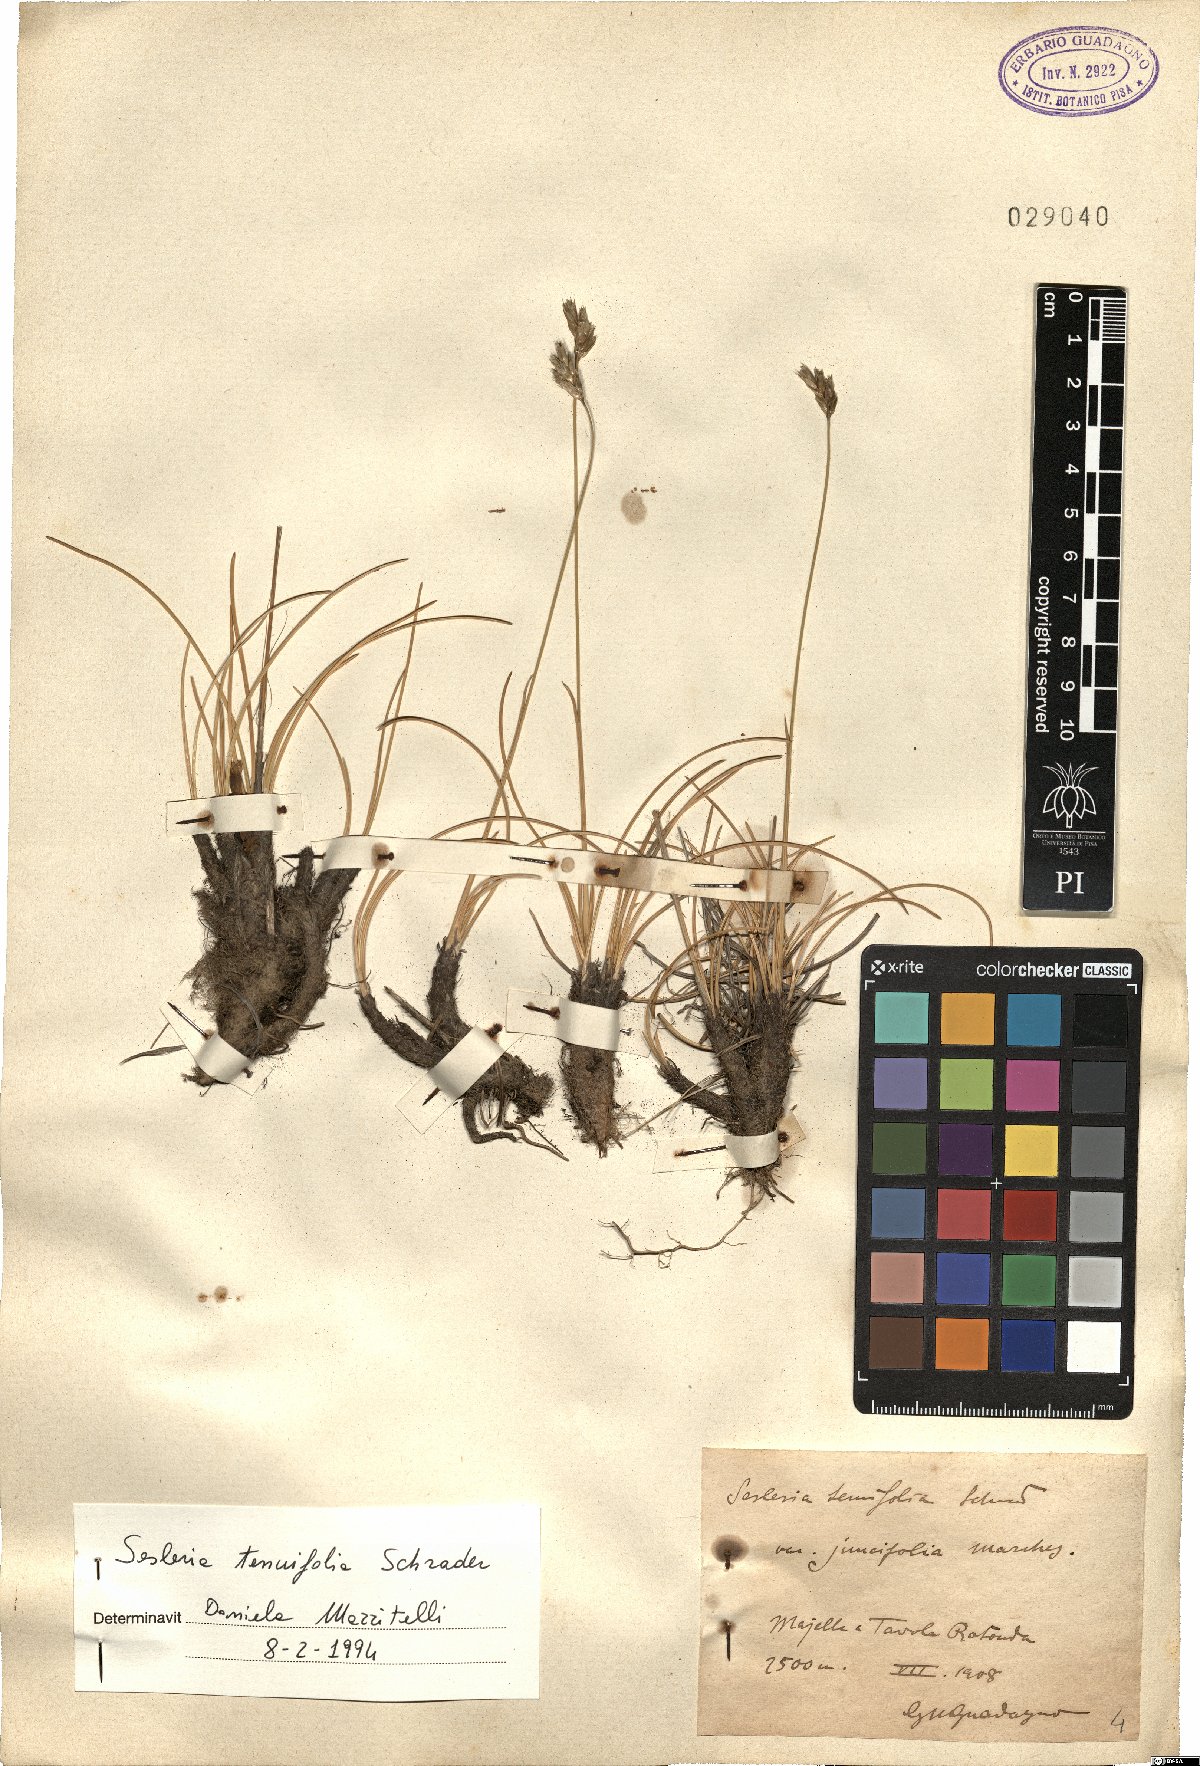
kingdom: Plantae
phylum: Tracheophyta
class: Liliopsida
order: Poales
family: Poaceae
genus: Sesleria
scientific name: Sesleria juncifolia
